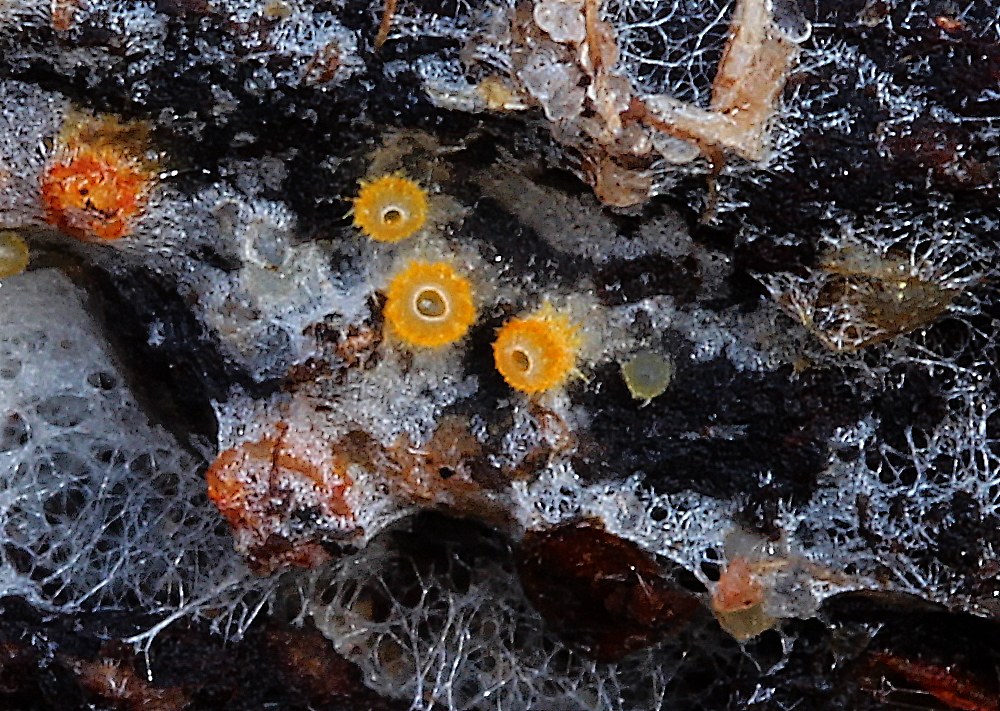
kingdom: Fungi
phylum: Ascomycota
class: Leotiomycetes
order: Helotiales
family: Arachnopezizaceae
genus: Arachnopeziza
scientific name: Arachnopeziza aurelia
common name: flamme-spindskive
